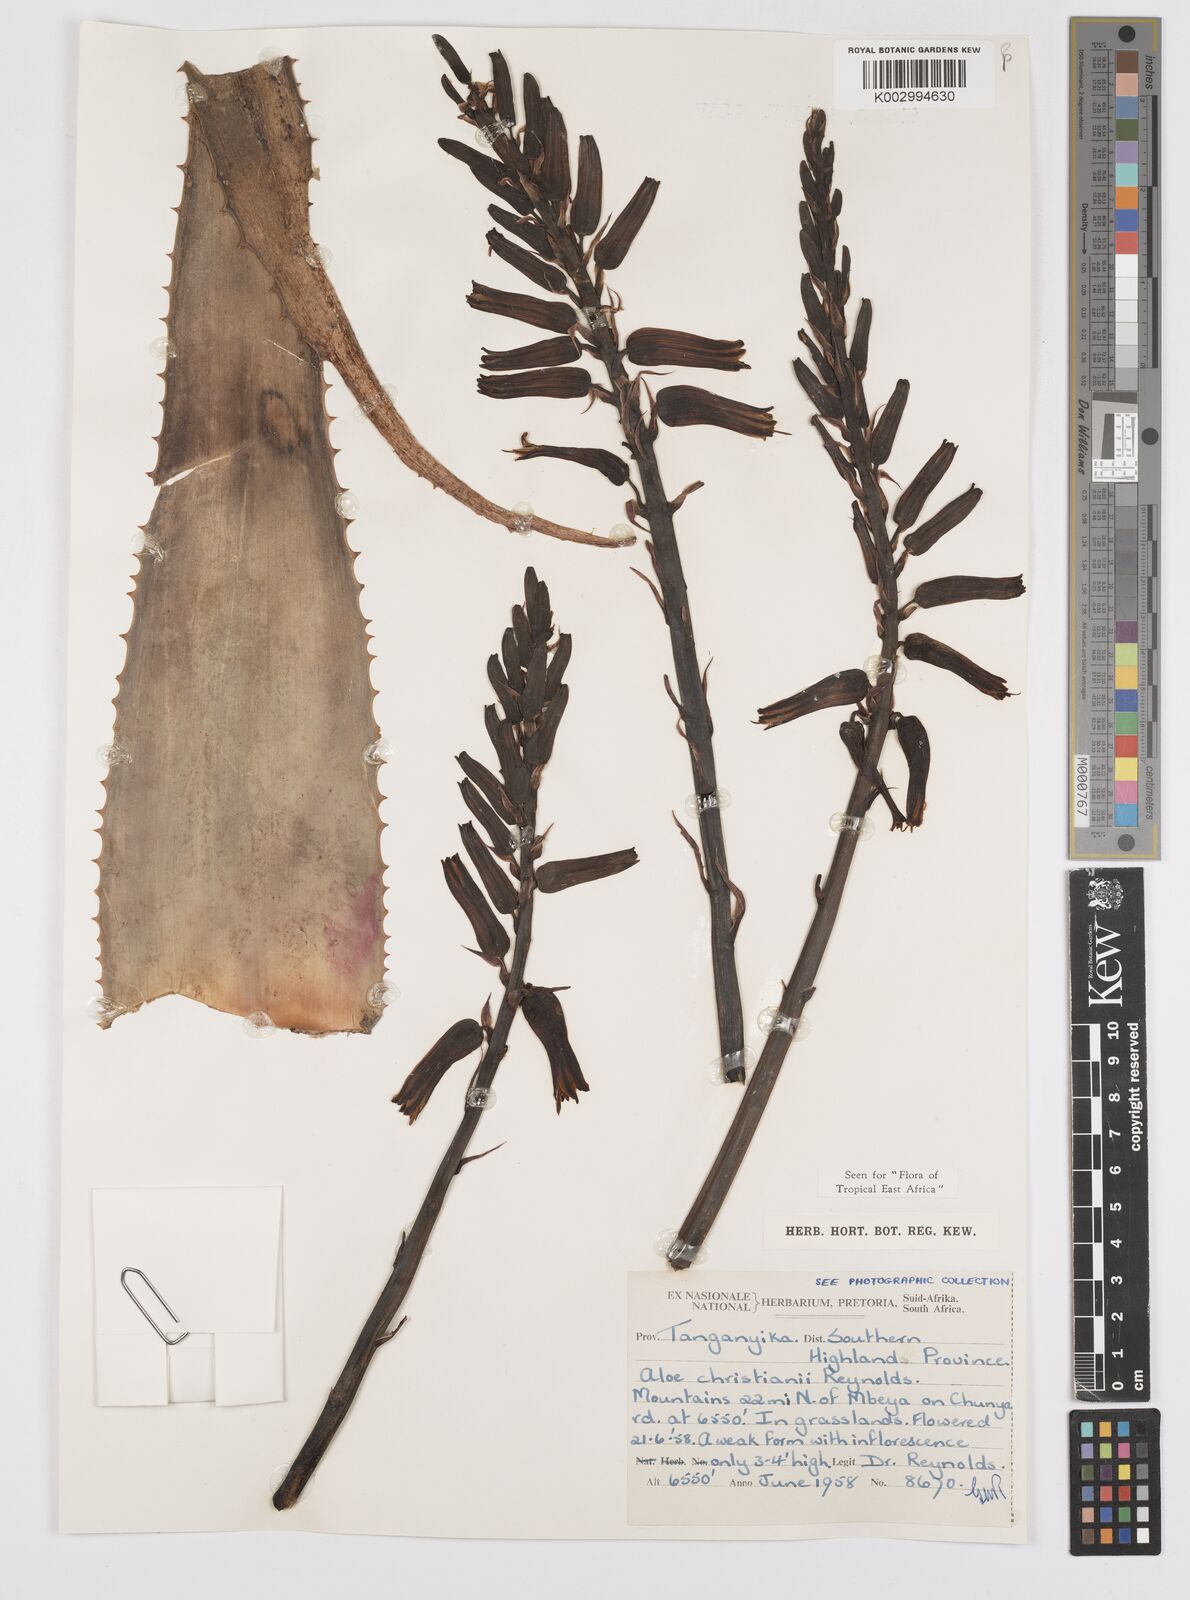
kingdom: Plantae
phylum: Tracheophyta
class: Liliopsida
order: Asparagales
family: Asphodelaceae
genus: Aloe
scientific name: Aloe christianii
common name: Basil christian's aloe
